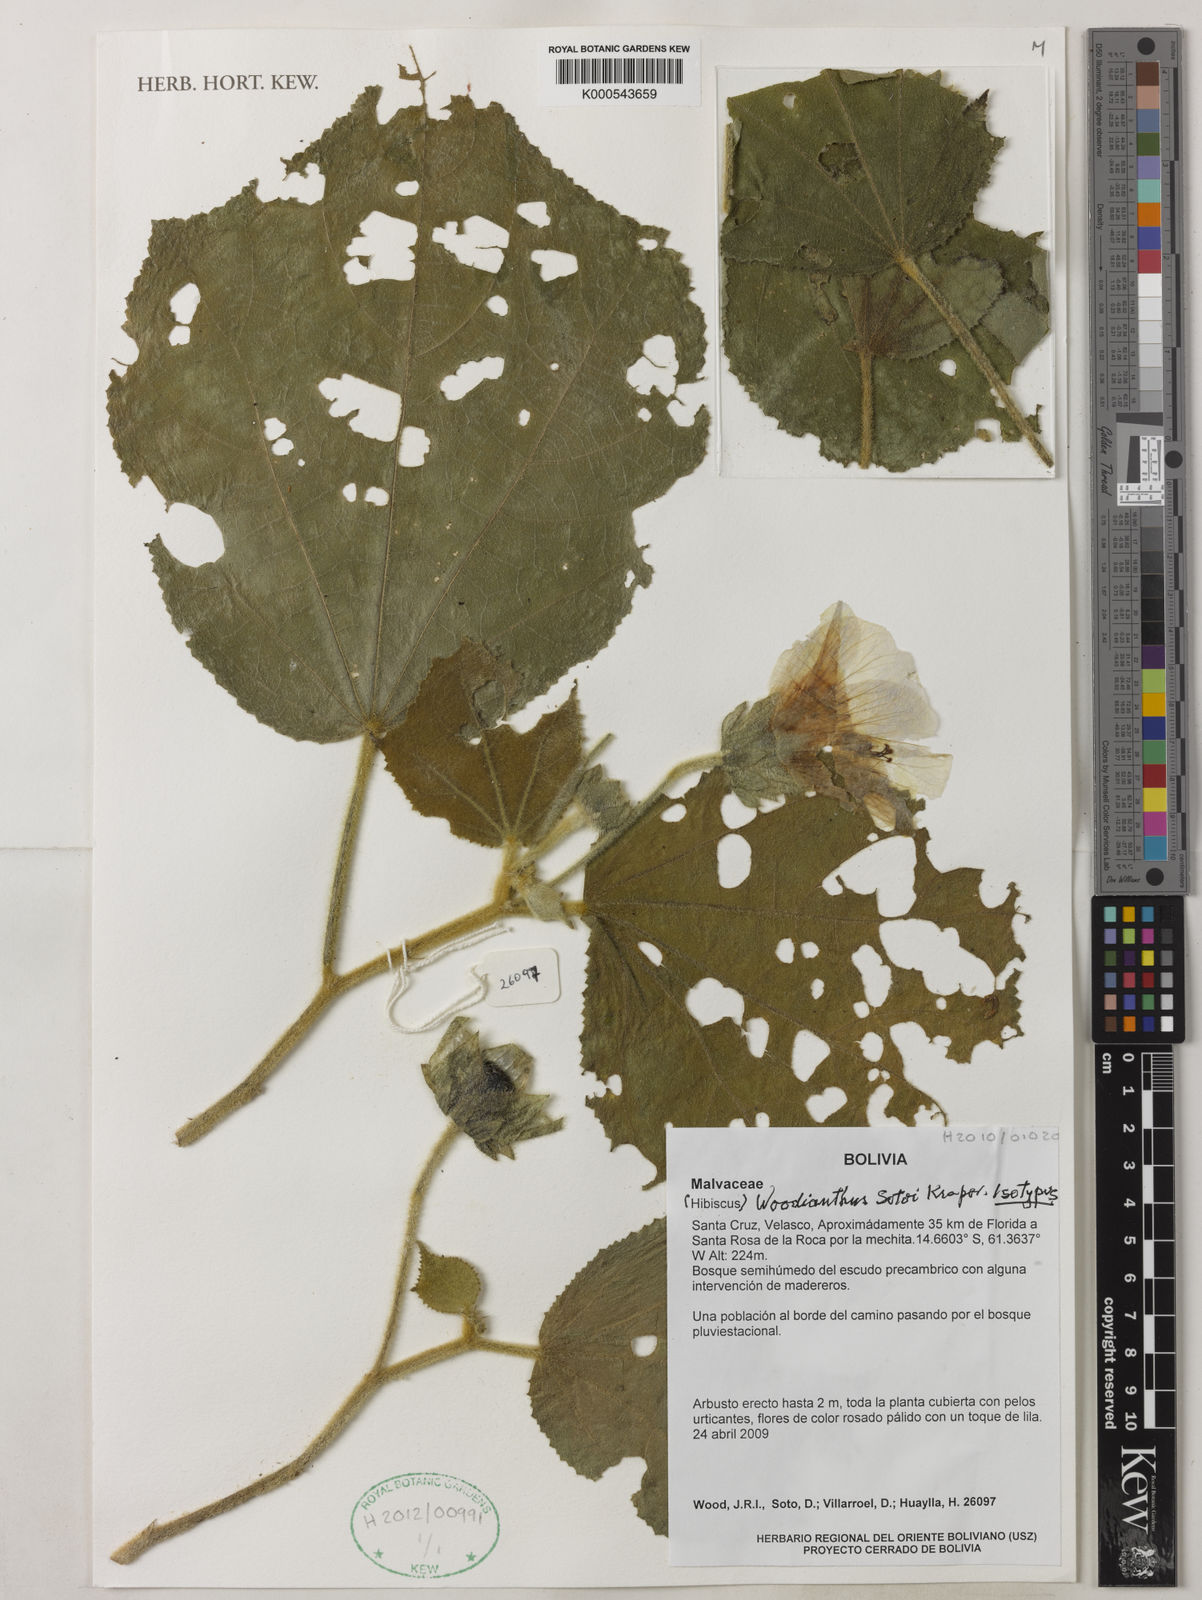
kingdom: Plantae
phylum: Tracheophyta
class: Magnoliopsida
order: Malvales
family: Malvaceae
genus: Woodianthus
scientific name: Woodianthus sotoi
